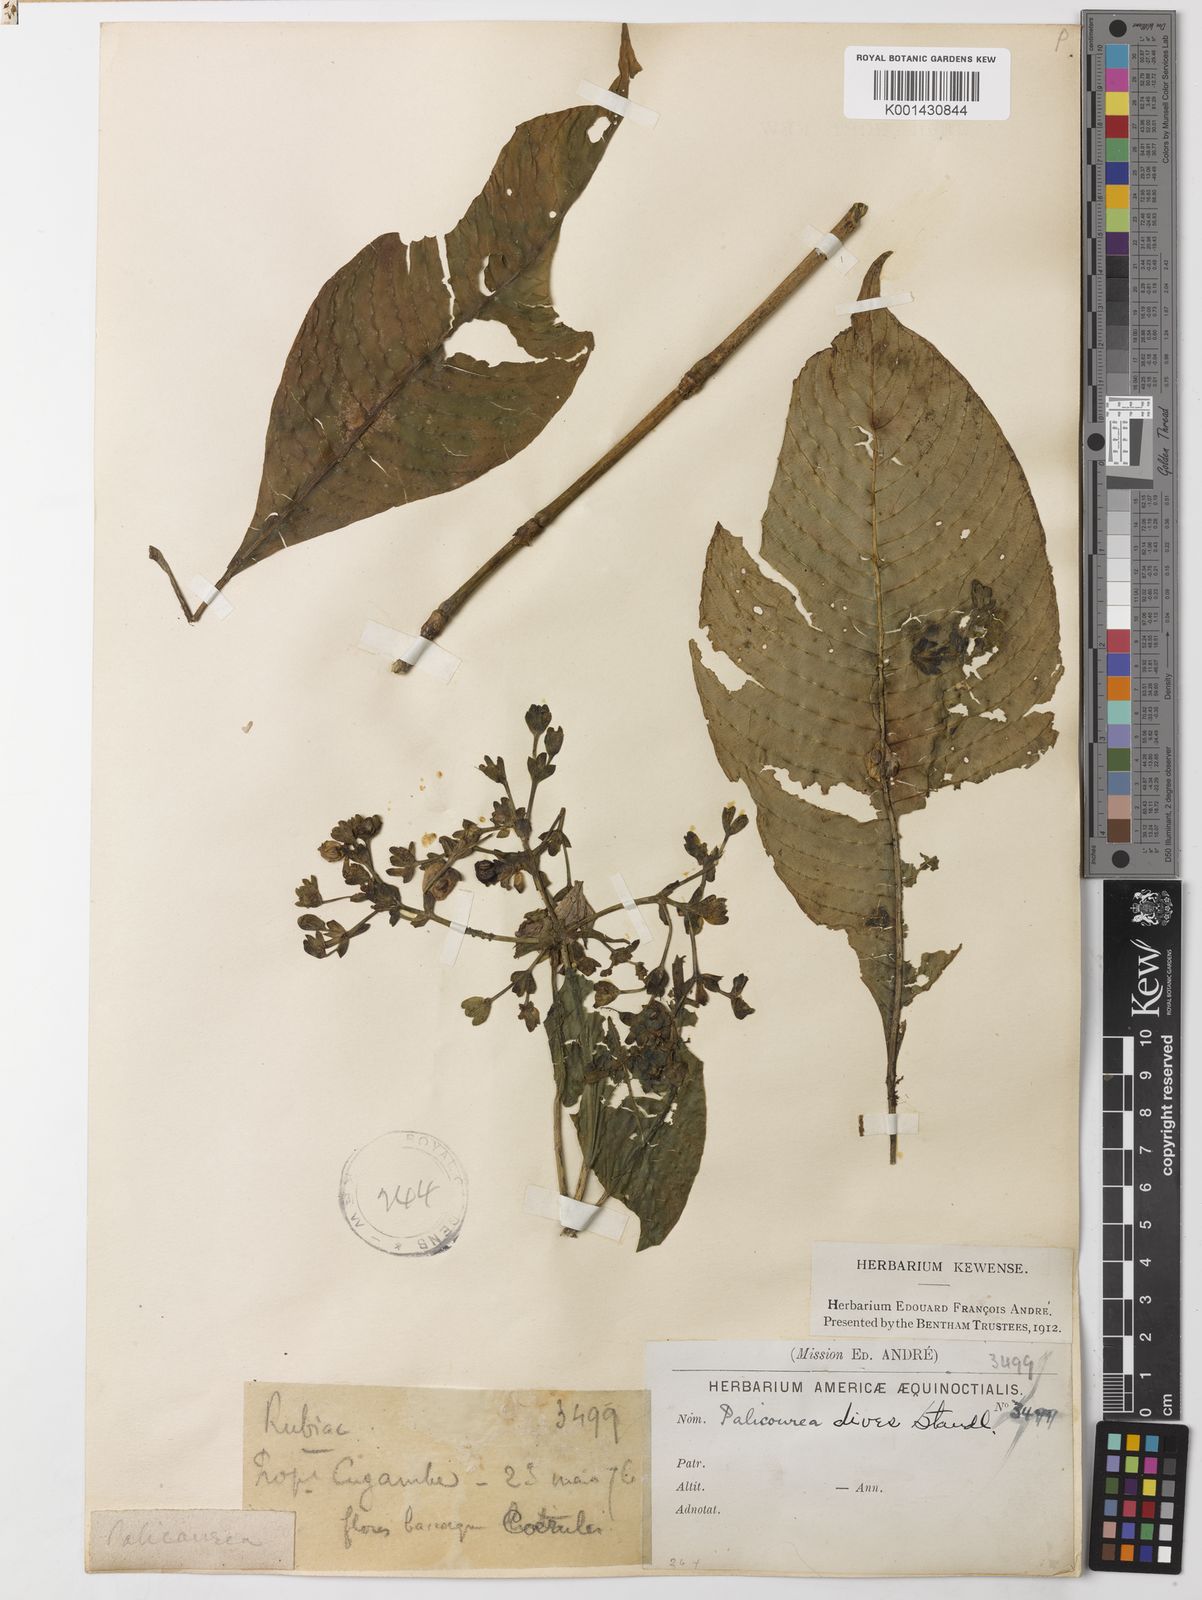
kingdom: Plantae
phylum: Tracheophyta
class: Magnoliopsida
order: Gentianales
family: Rubiaceae
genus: Palicourea
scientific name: Palicourea dives
